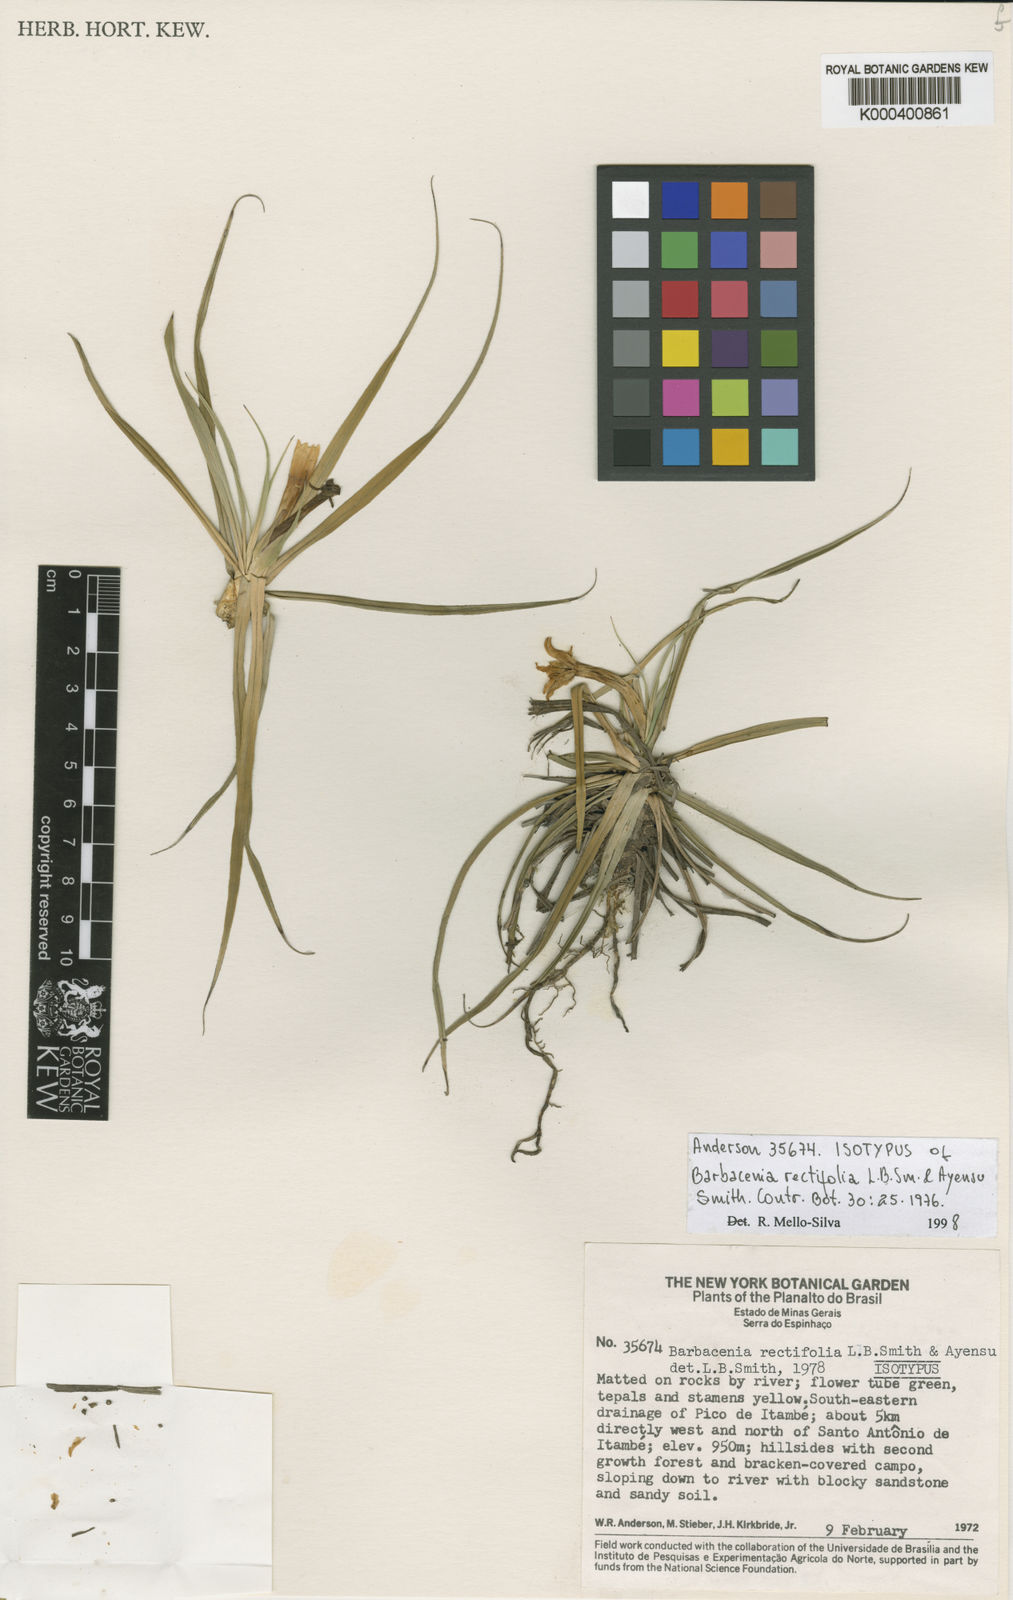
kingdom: Plantae
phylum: Tracheophyta
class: Liliopsida
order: Pandanales
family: Velloziaceae
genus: Barbacenia
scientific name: Barbacenia rectifolia
